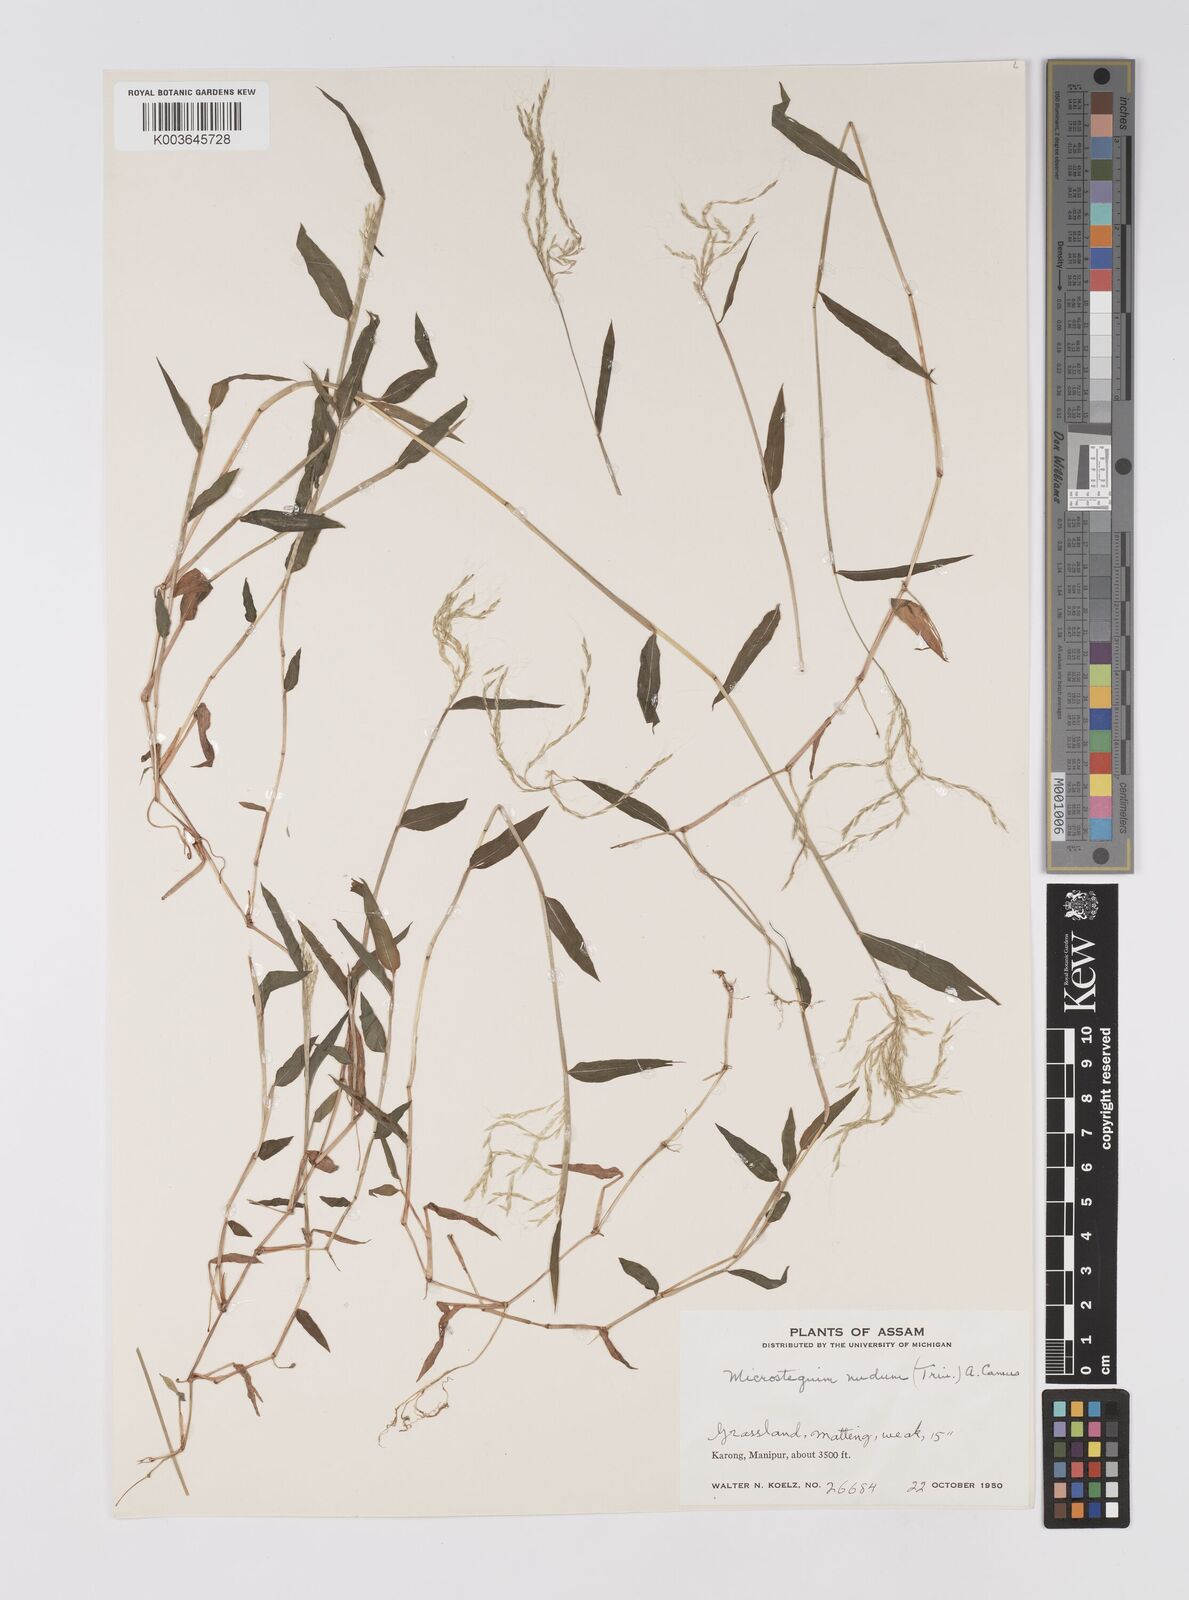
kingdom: Plantae
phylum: Tracheophyta
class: Liliopsida
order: Poales
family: Poaceae
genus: Microstegium
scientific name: Microstegium nudum
